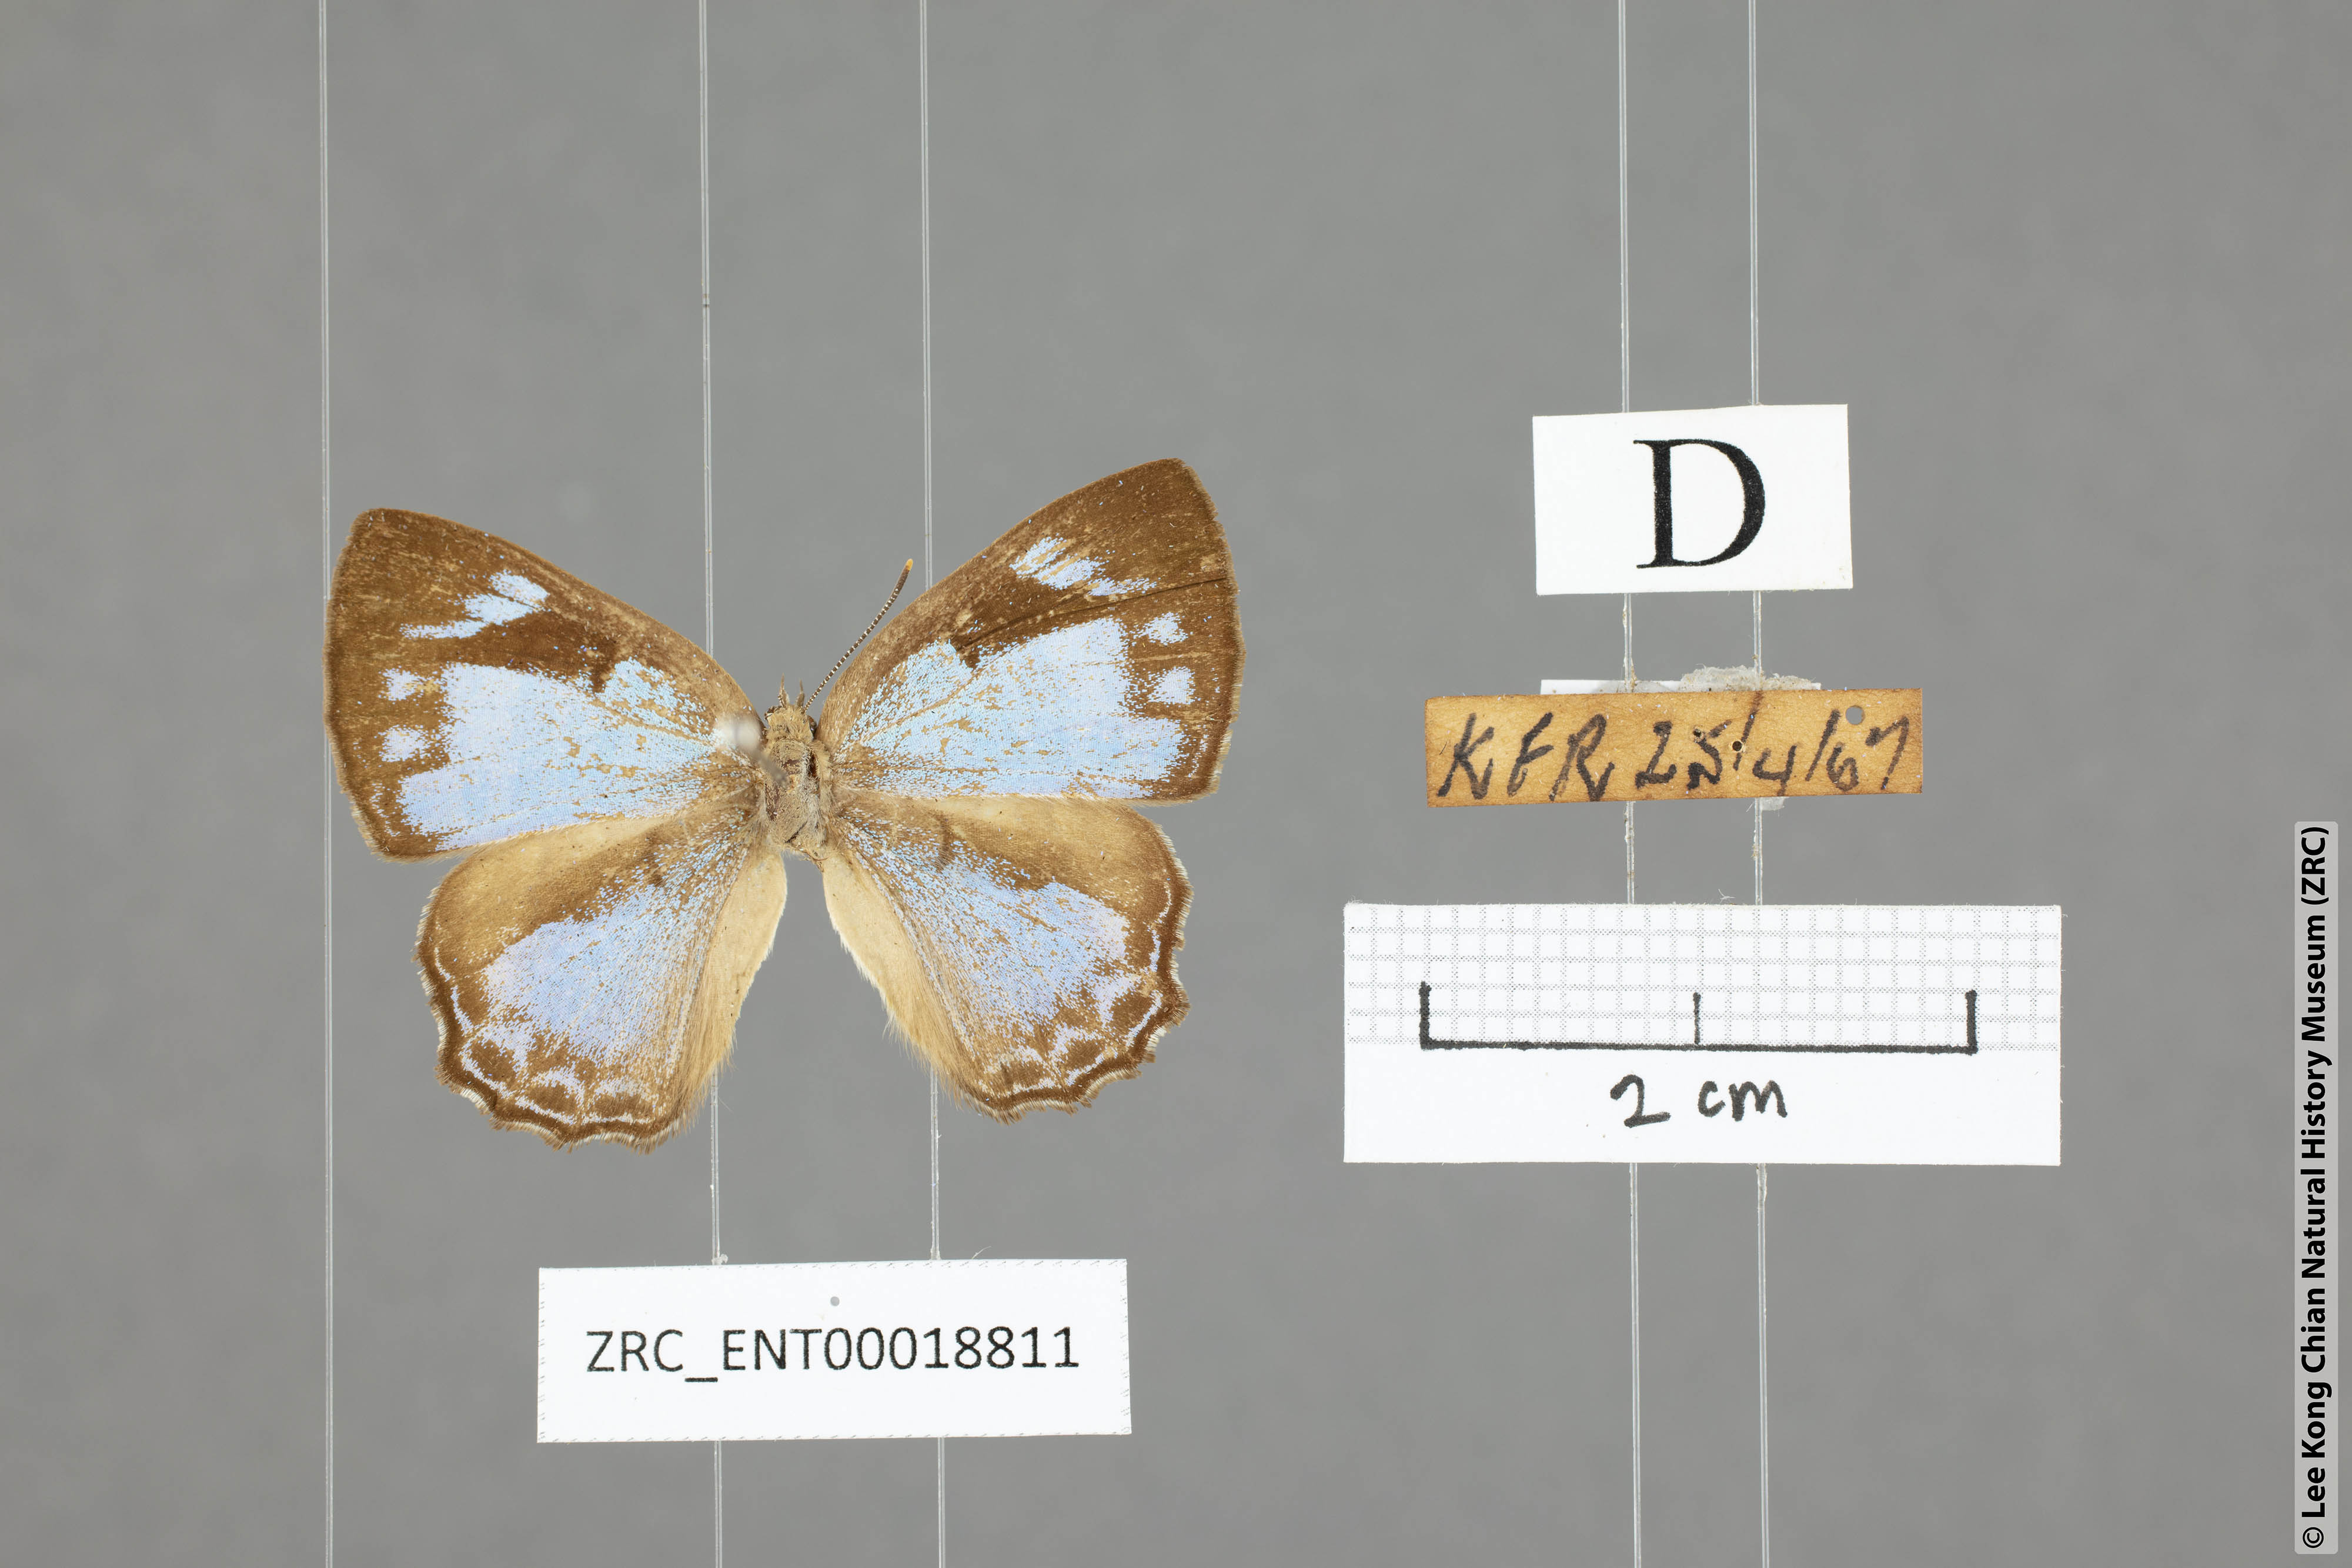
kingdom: Animalia
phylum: Arthropoda
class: Insecta
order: Lepidoptera
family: Lycaenidae
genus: Poritia
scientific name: Poritia pleurata
